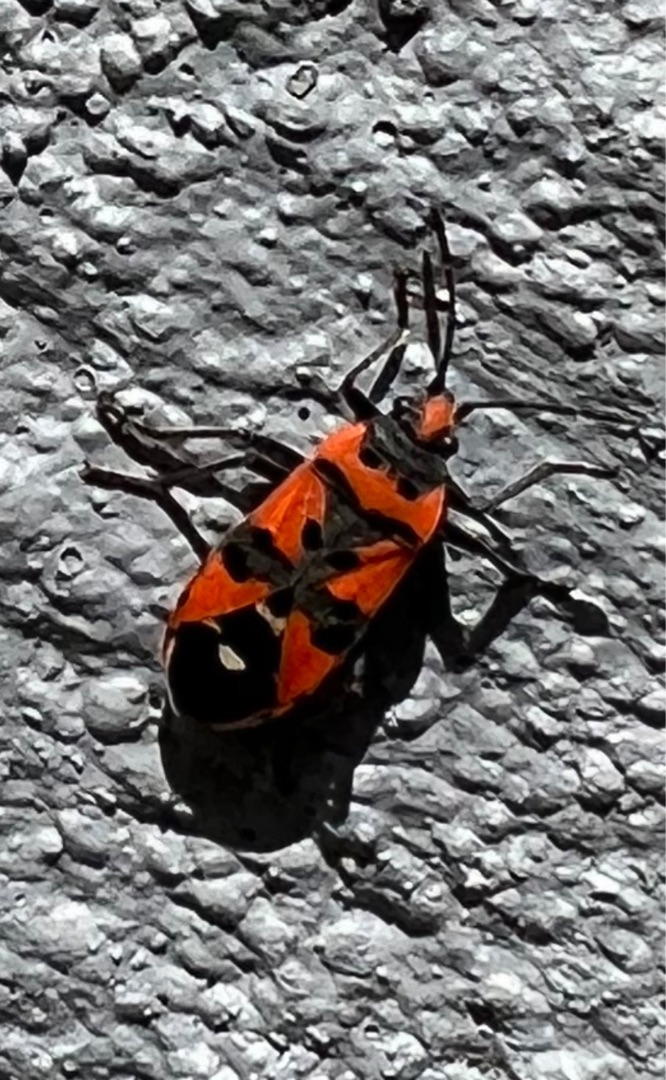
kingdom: Animalia
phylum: Arthropoda
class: Insecta
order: Hemiptera
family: Lygaeidae
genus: Lygaeus
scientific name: Lygaeus equestris
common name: Soldatertæge
